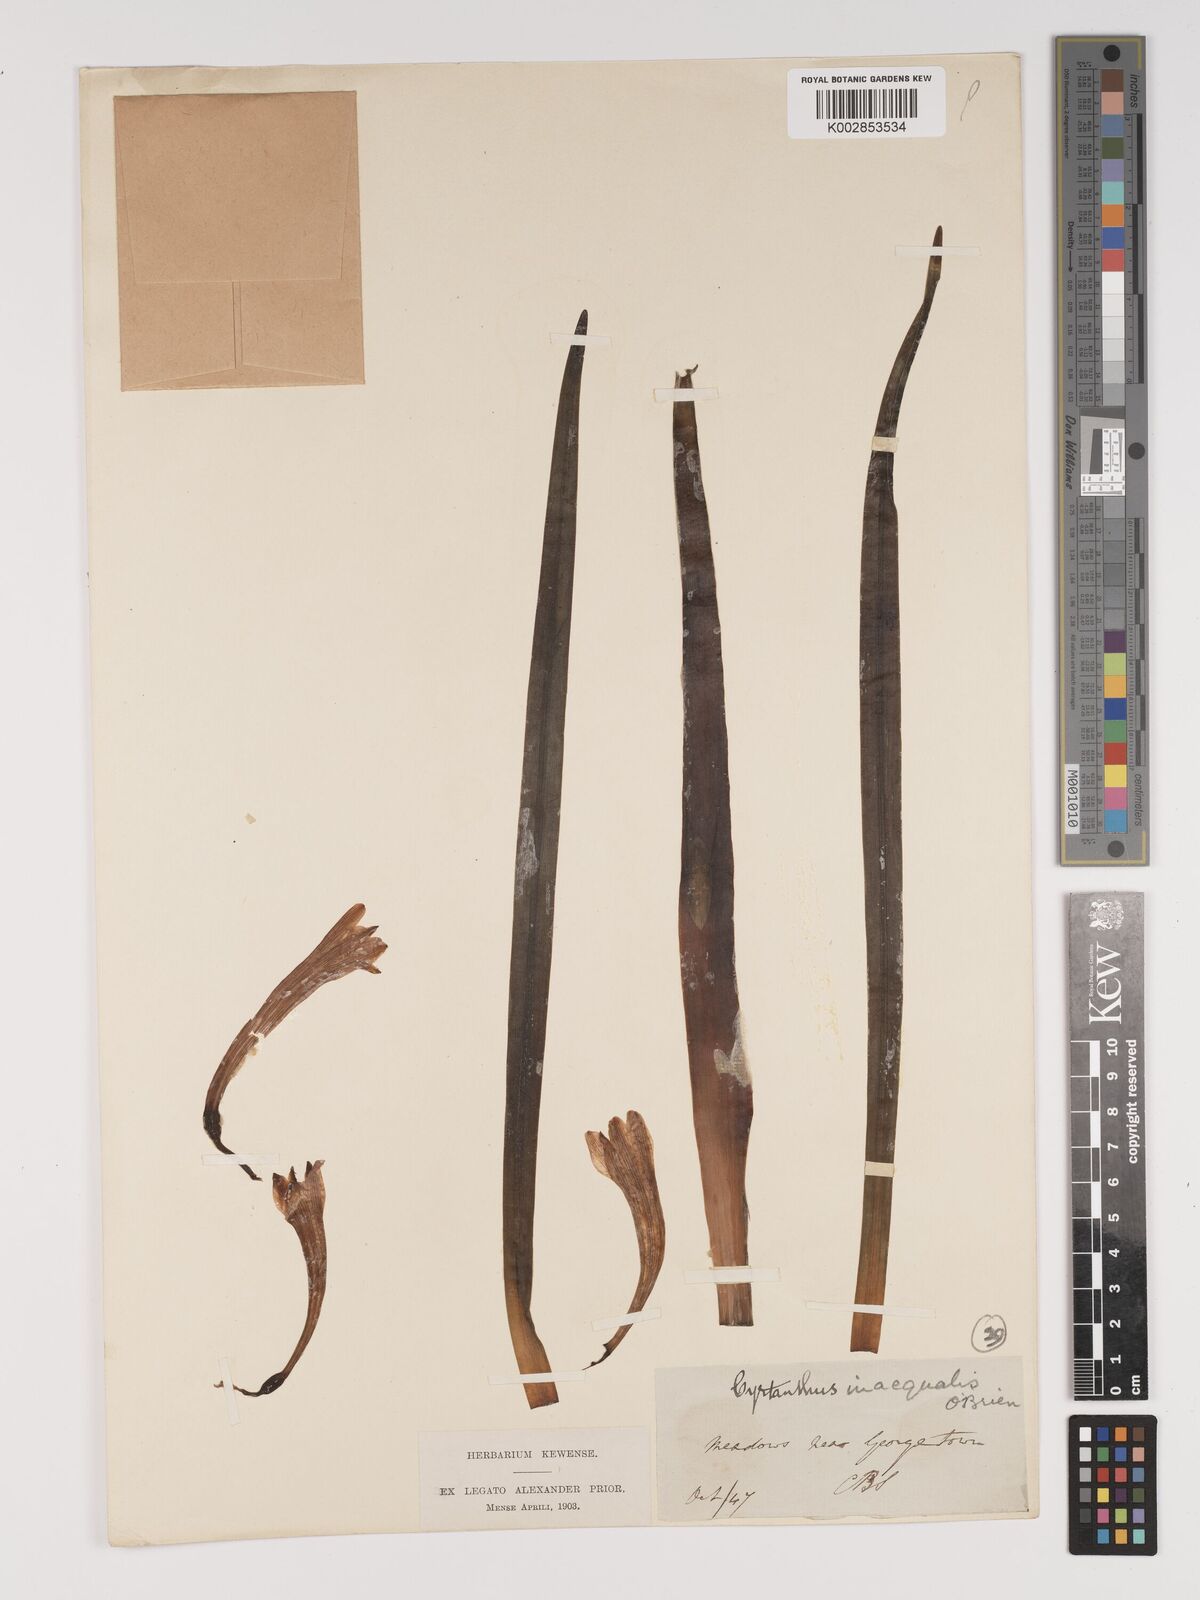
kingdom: Plantae
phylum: Tracheophyta
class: Liliopsida
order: Asparagales
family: Amaryllidaceae
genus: Cyrtanthus
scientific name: Cyrtanthus inaequalis
